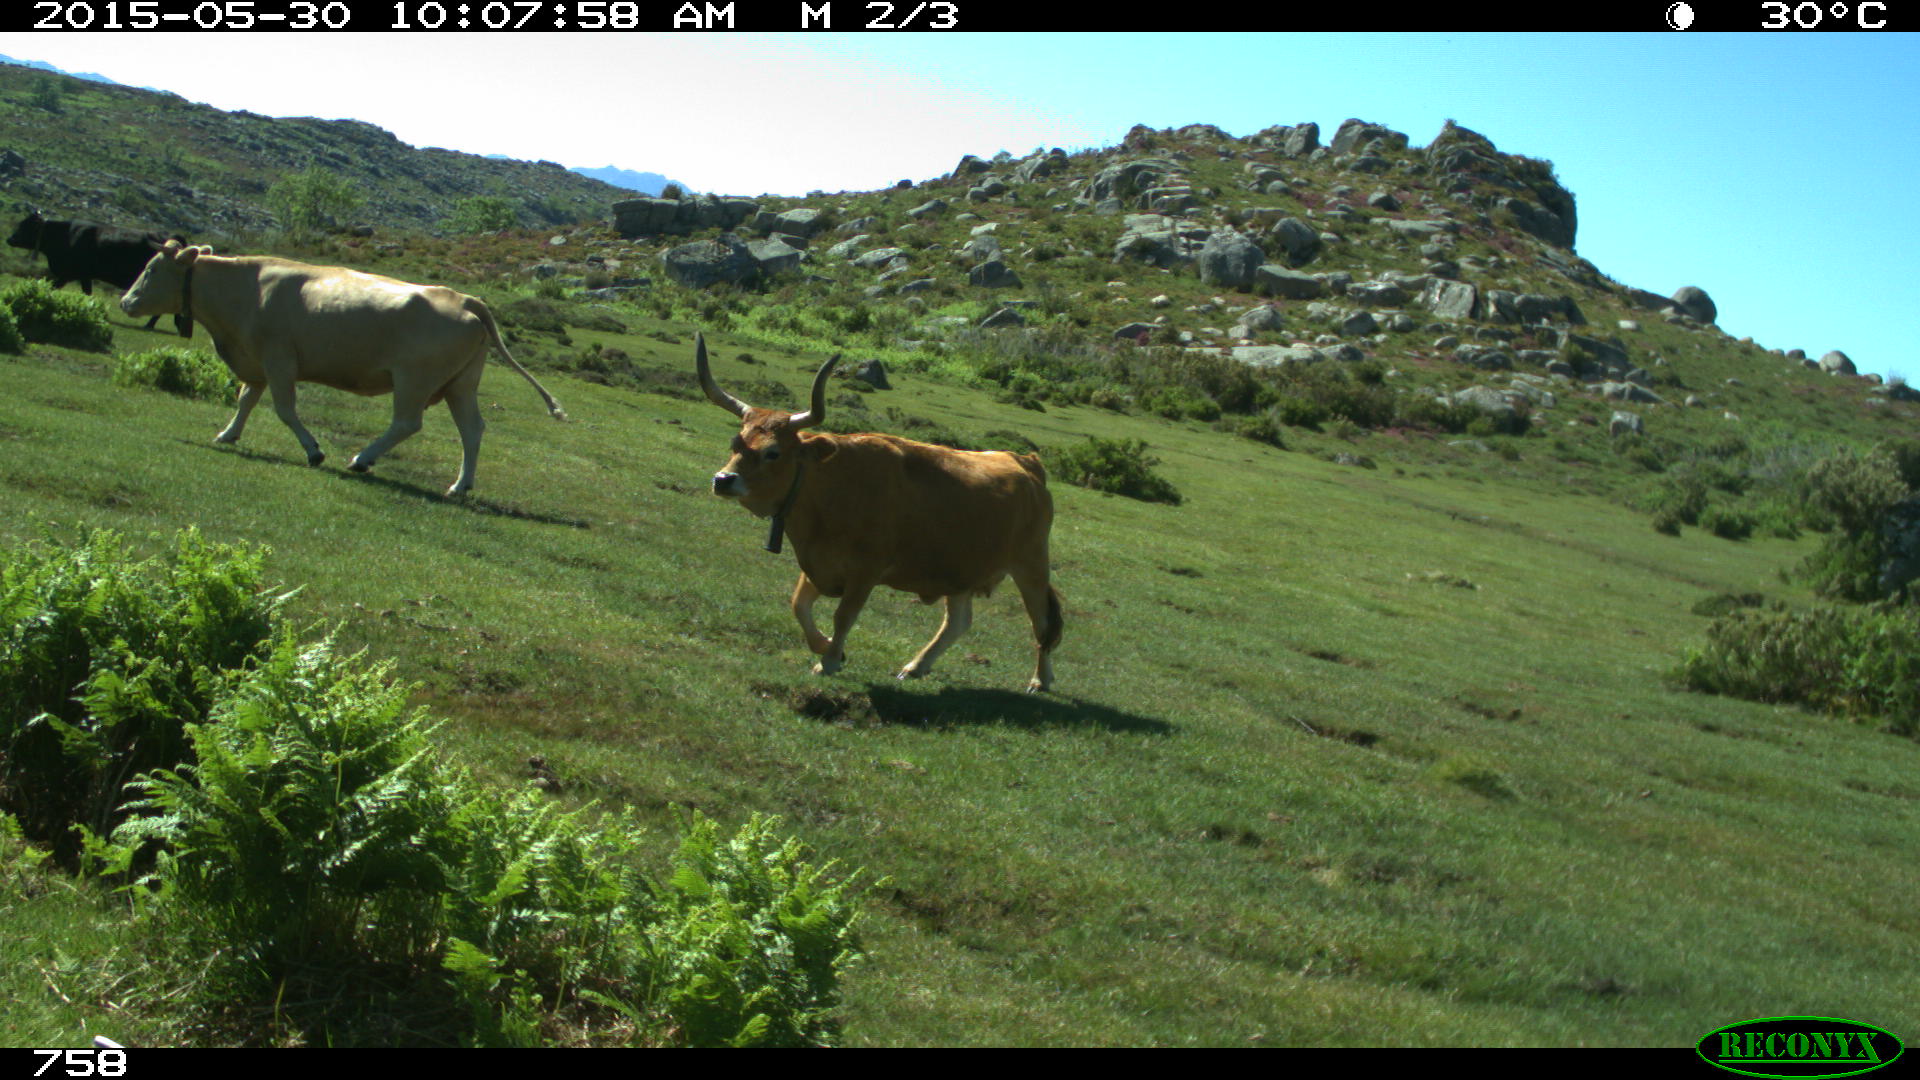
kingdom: Animalia
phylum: Chordata
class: Mammalia
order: Artiodactyla
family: Bovidae
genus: Bos
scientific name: Bos taurus
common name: Domesticated cattle
